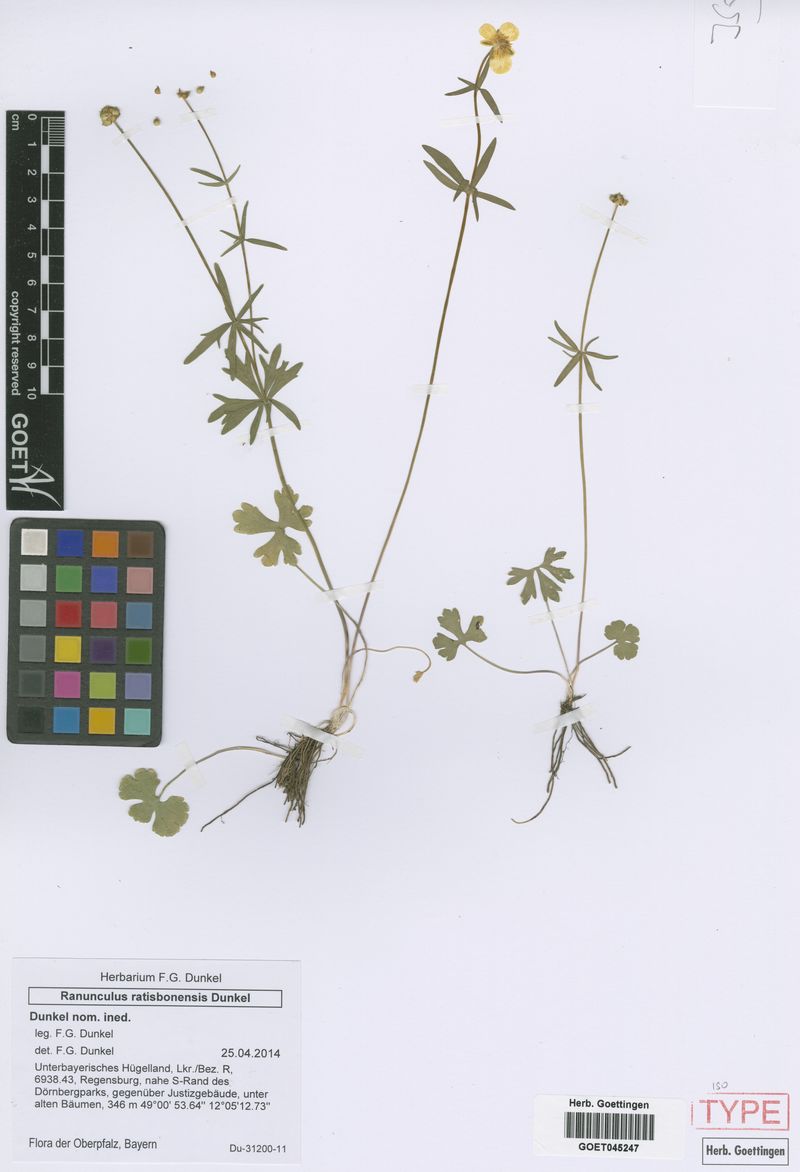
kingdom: Plantae
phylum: Tracheophyta
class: Magnoliopsida
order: Ranunculales
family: Ranunculaceae
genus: Ranunculus
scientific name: Ranunculus ratisbonensis
